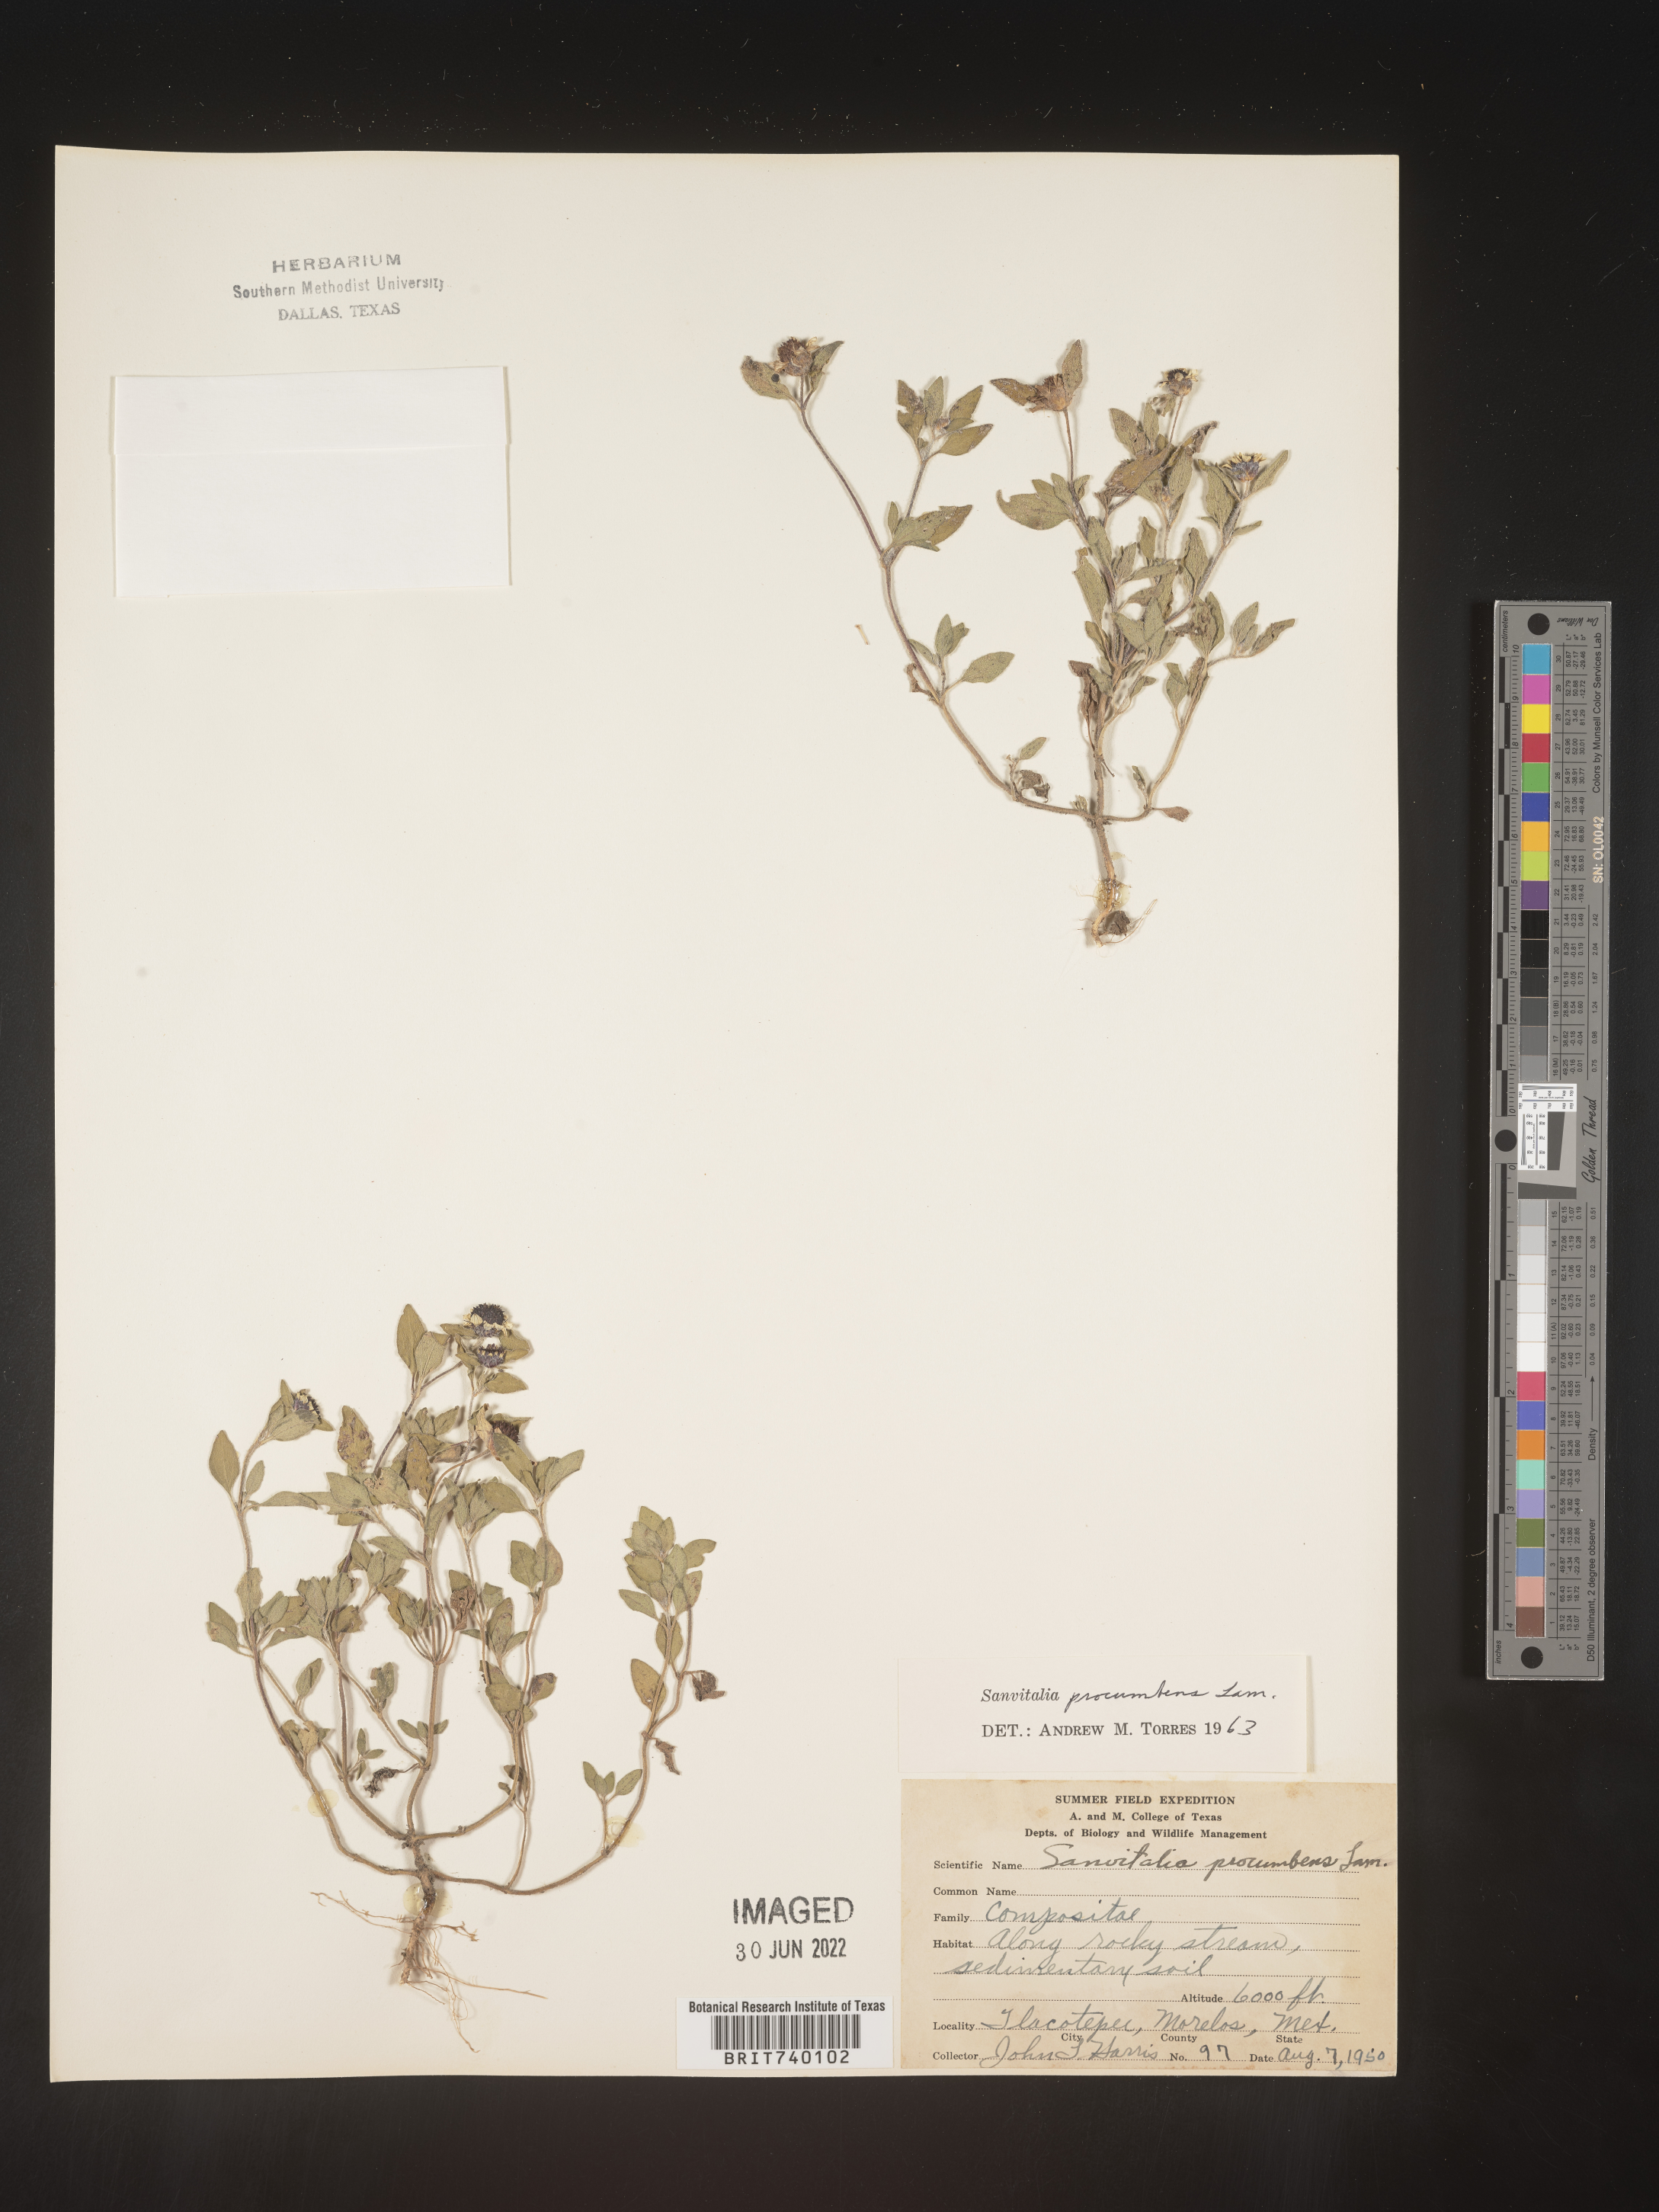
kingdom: Plantae
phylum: Tracheophyta
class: Magnoliopsida
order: Asterales
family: Asteraceae
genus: Sanvitalia
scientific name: Sanvitalia
